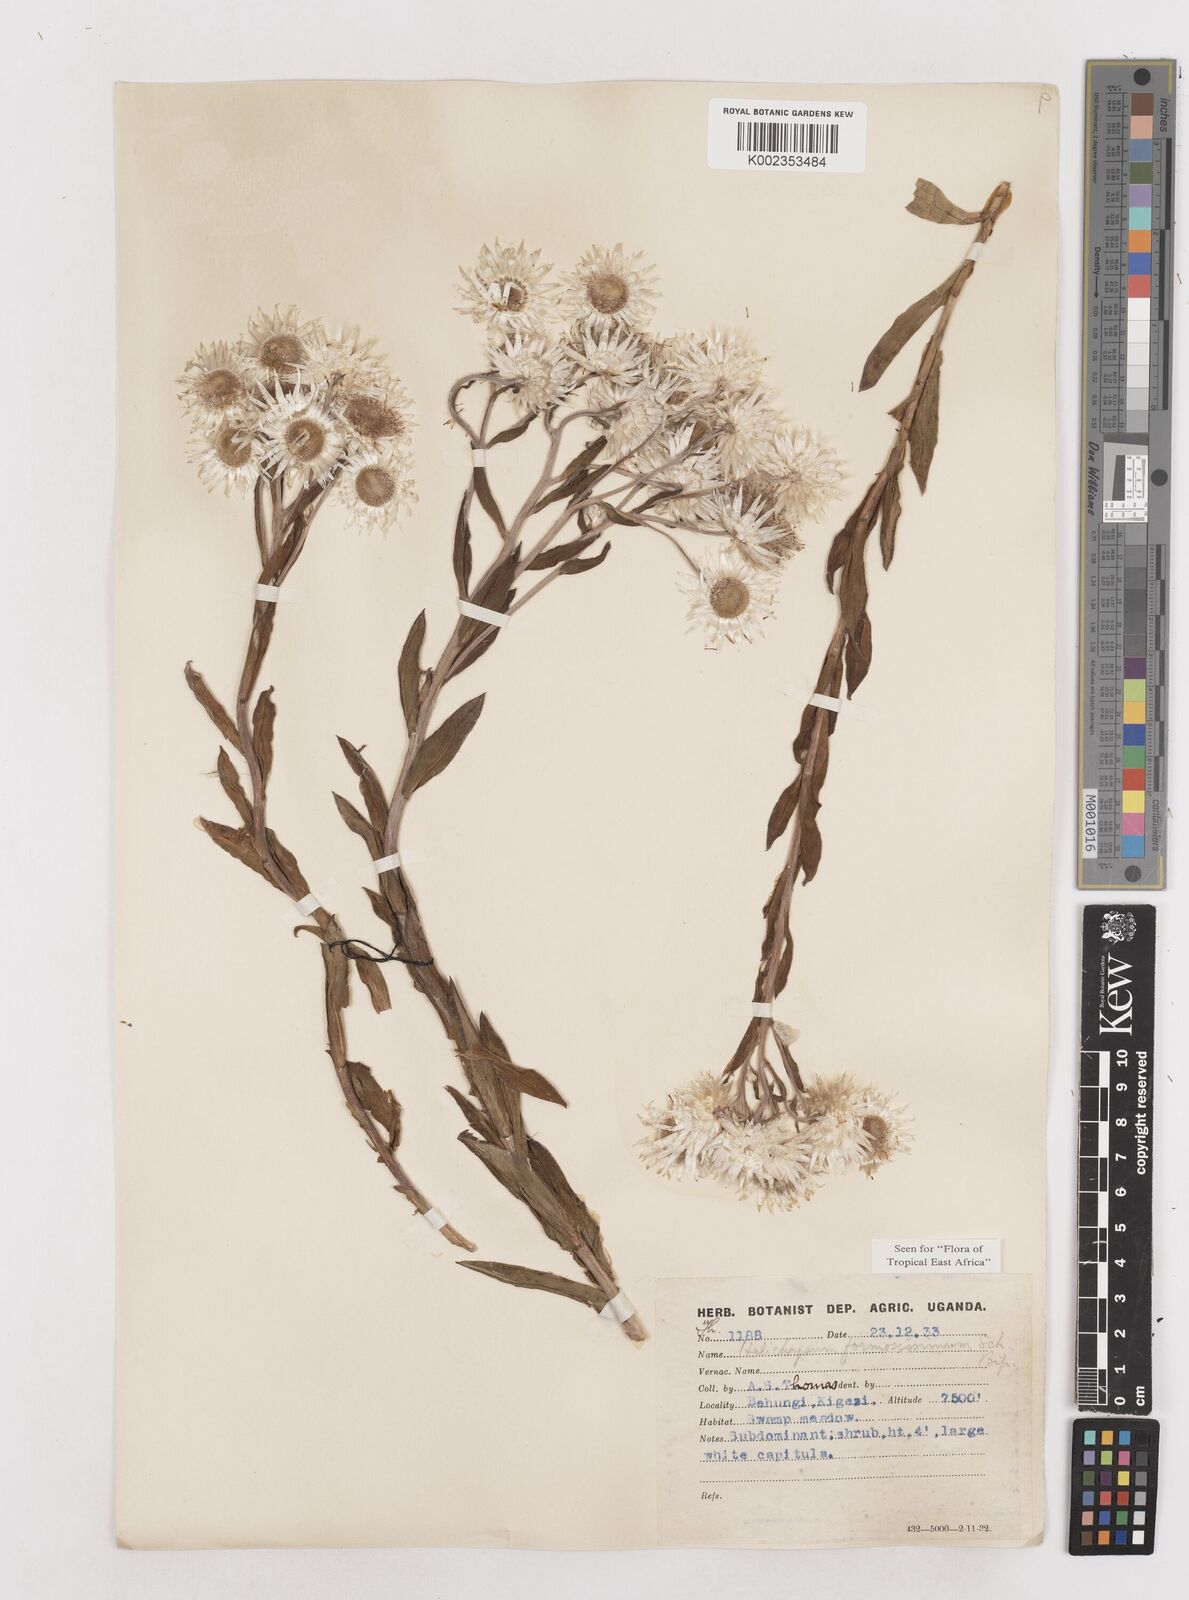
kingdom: Plantae
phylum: Tracheophyta
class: Magnoliopsida
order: Asterales
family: Asteraceae
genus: Helichrysum
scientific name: Helichrysum formosissimum
